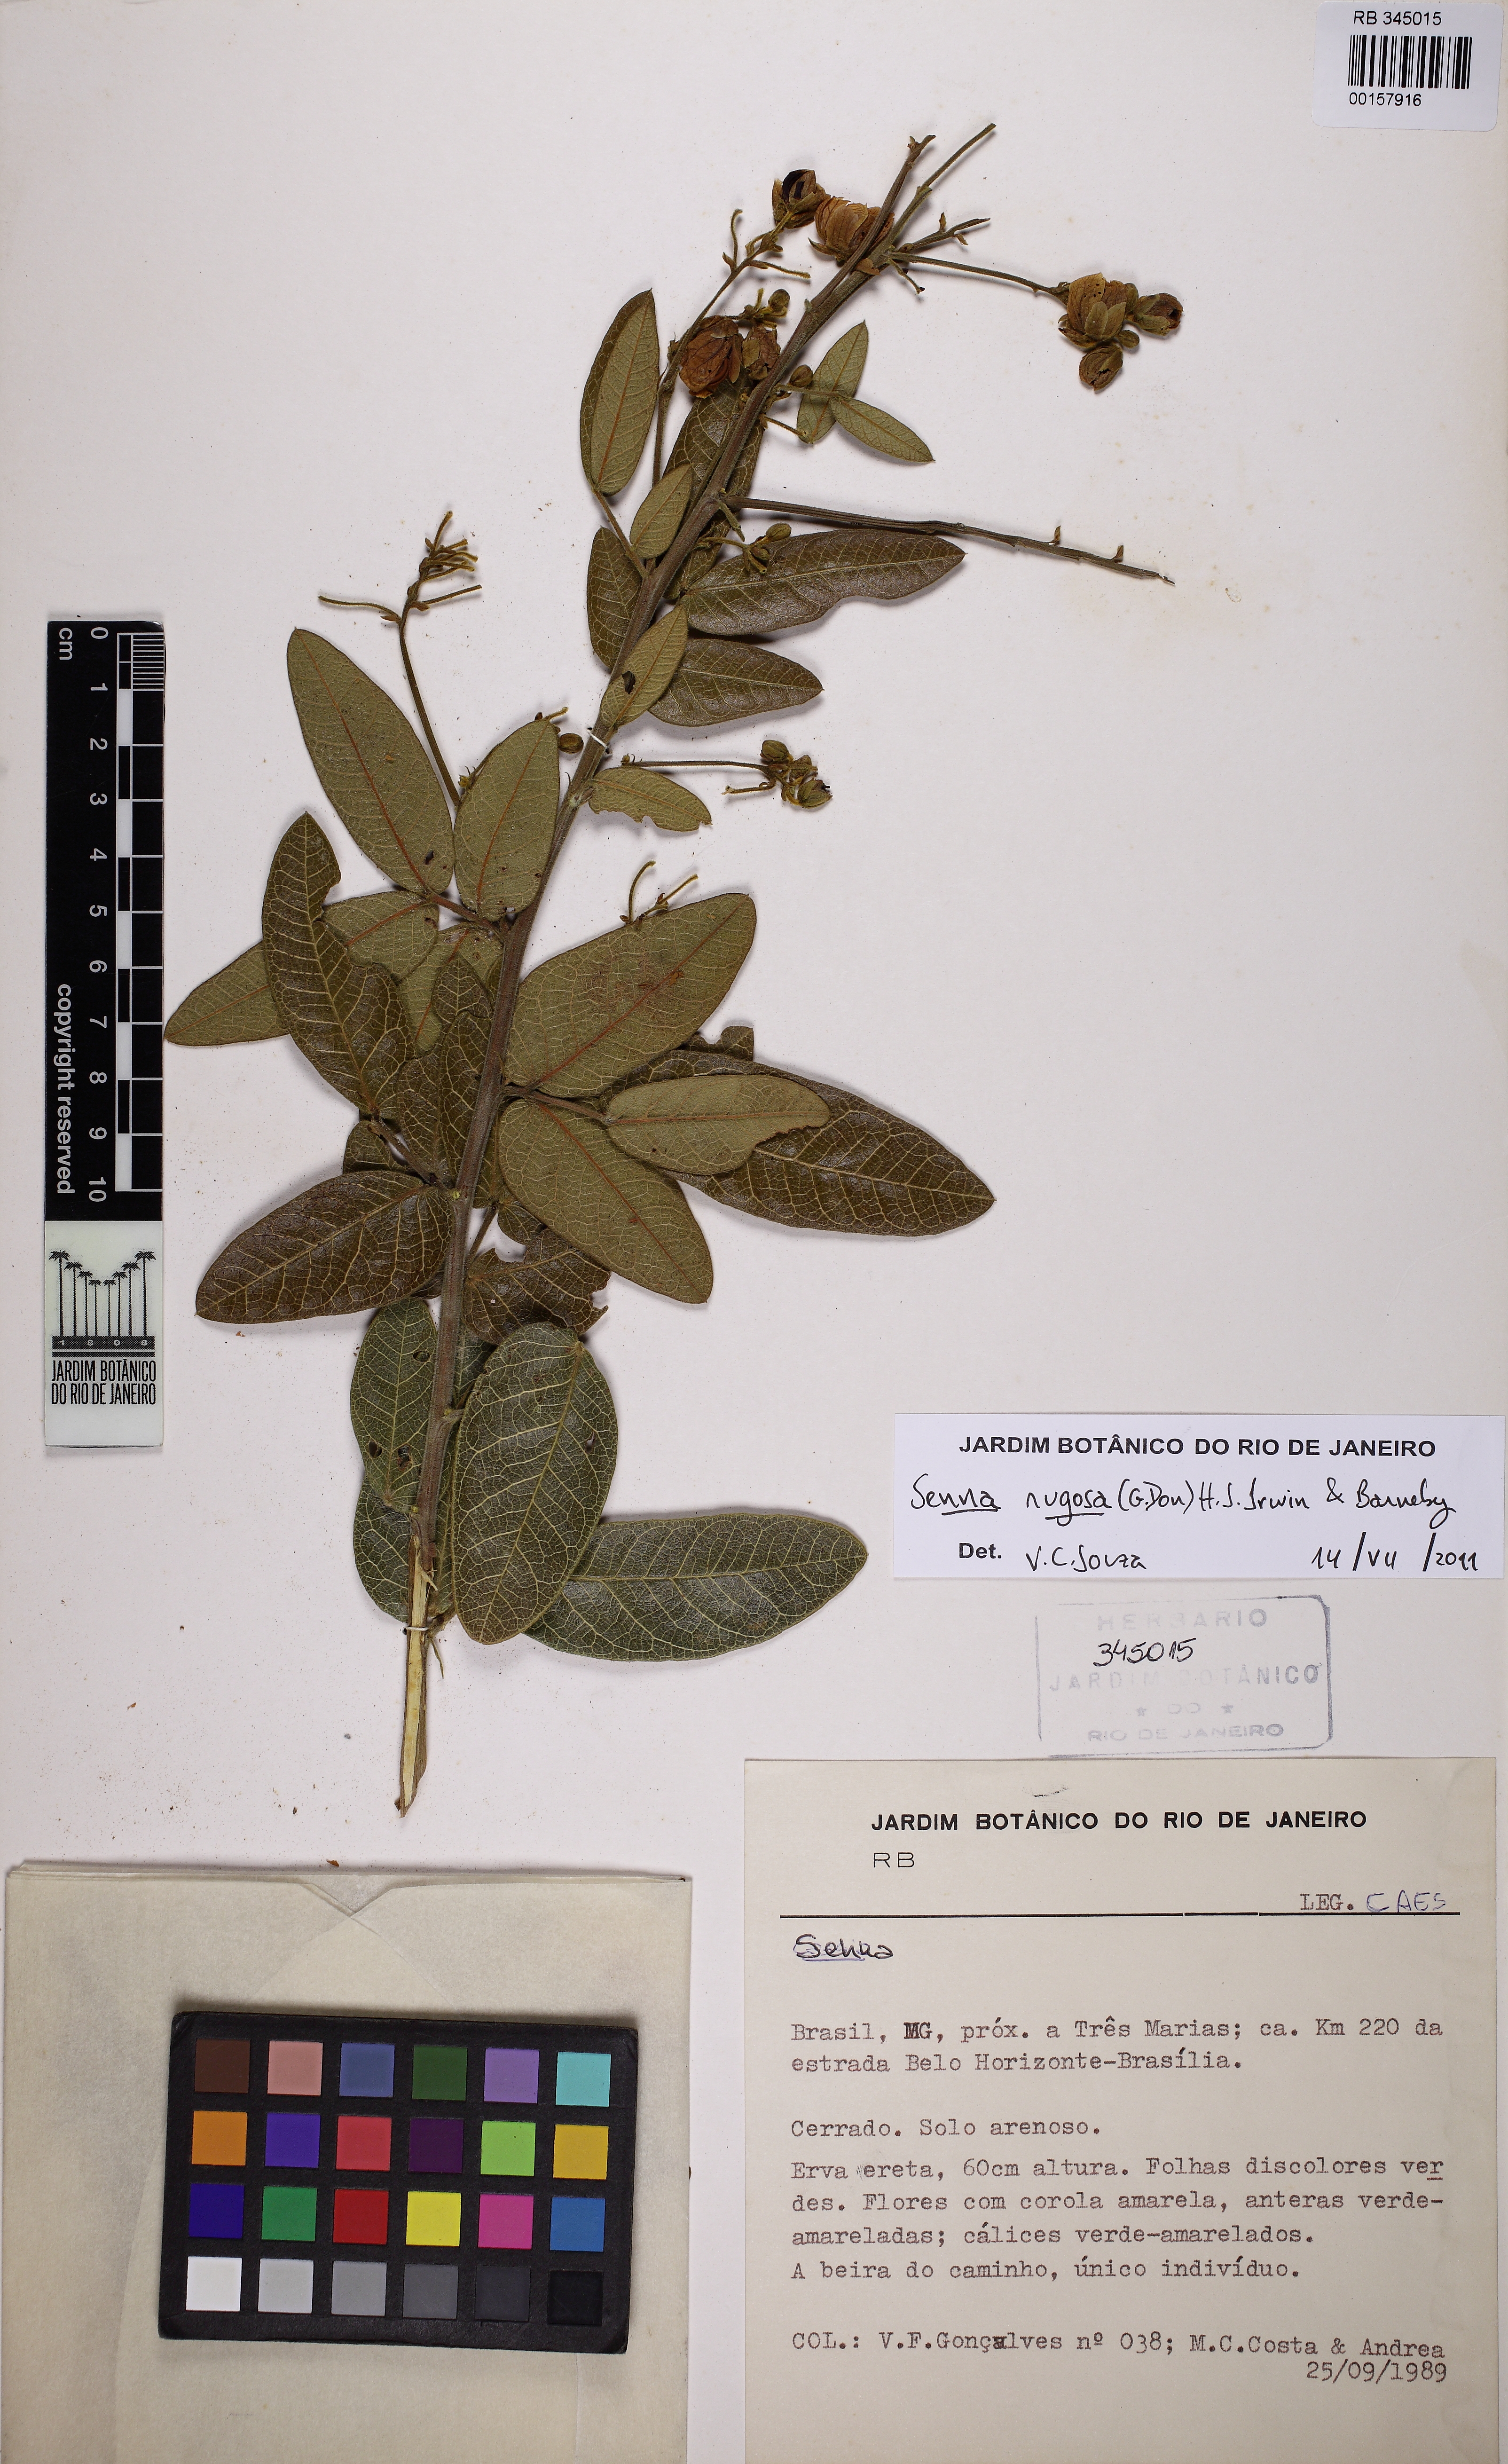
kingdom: Plantae
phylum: Tracheophyta
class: Magnoliopsida
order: Fabales
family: Fabaceae
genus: Senna
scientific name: Senna rugosa
